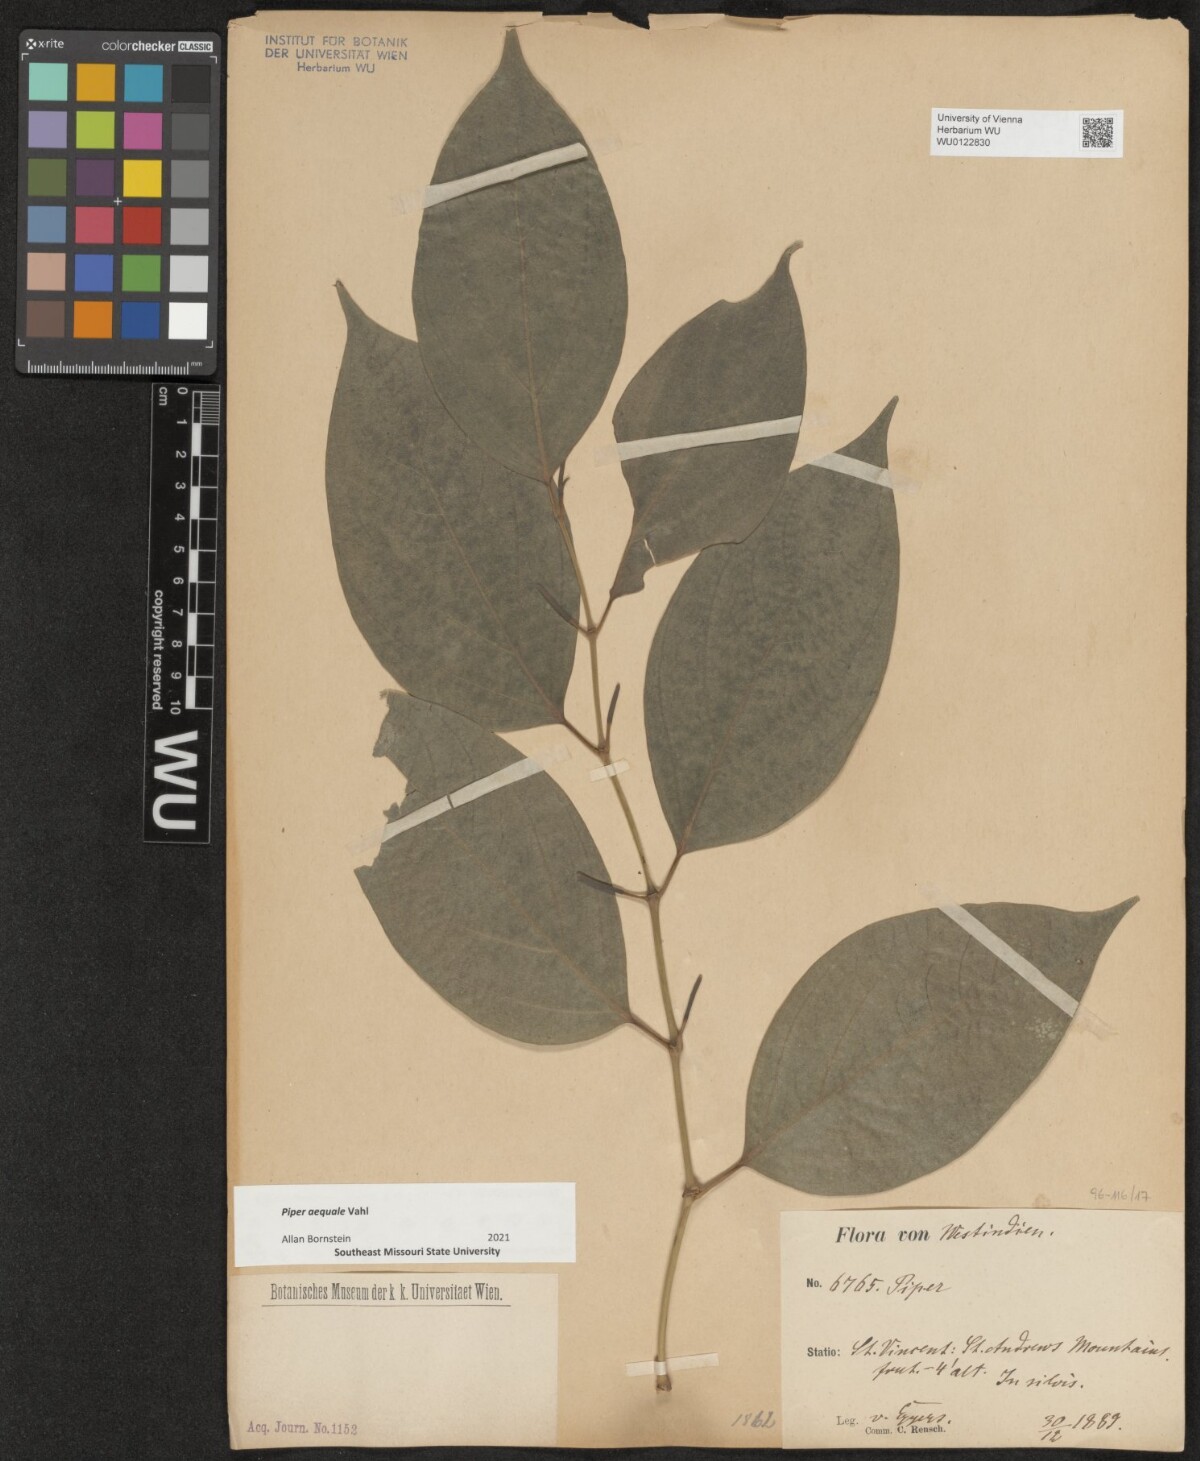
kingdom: Plantae
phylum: Tracheophyta
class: Magnoliopsida
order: Piperales
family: Piperaceae
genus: Piper
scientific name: Piper aequale
